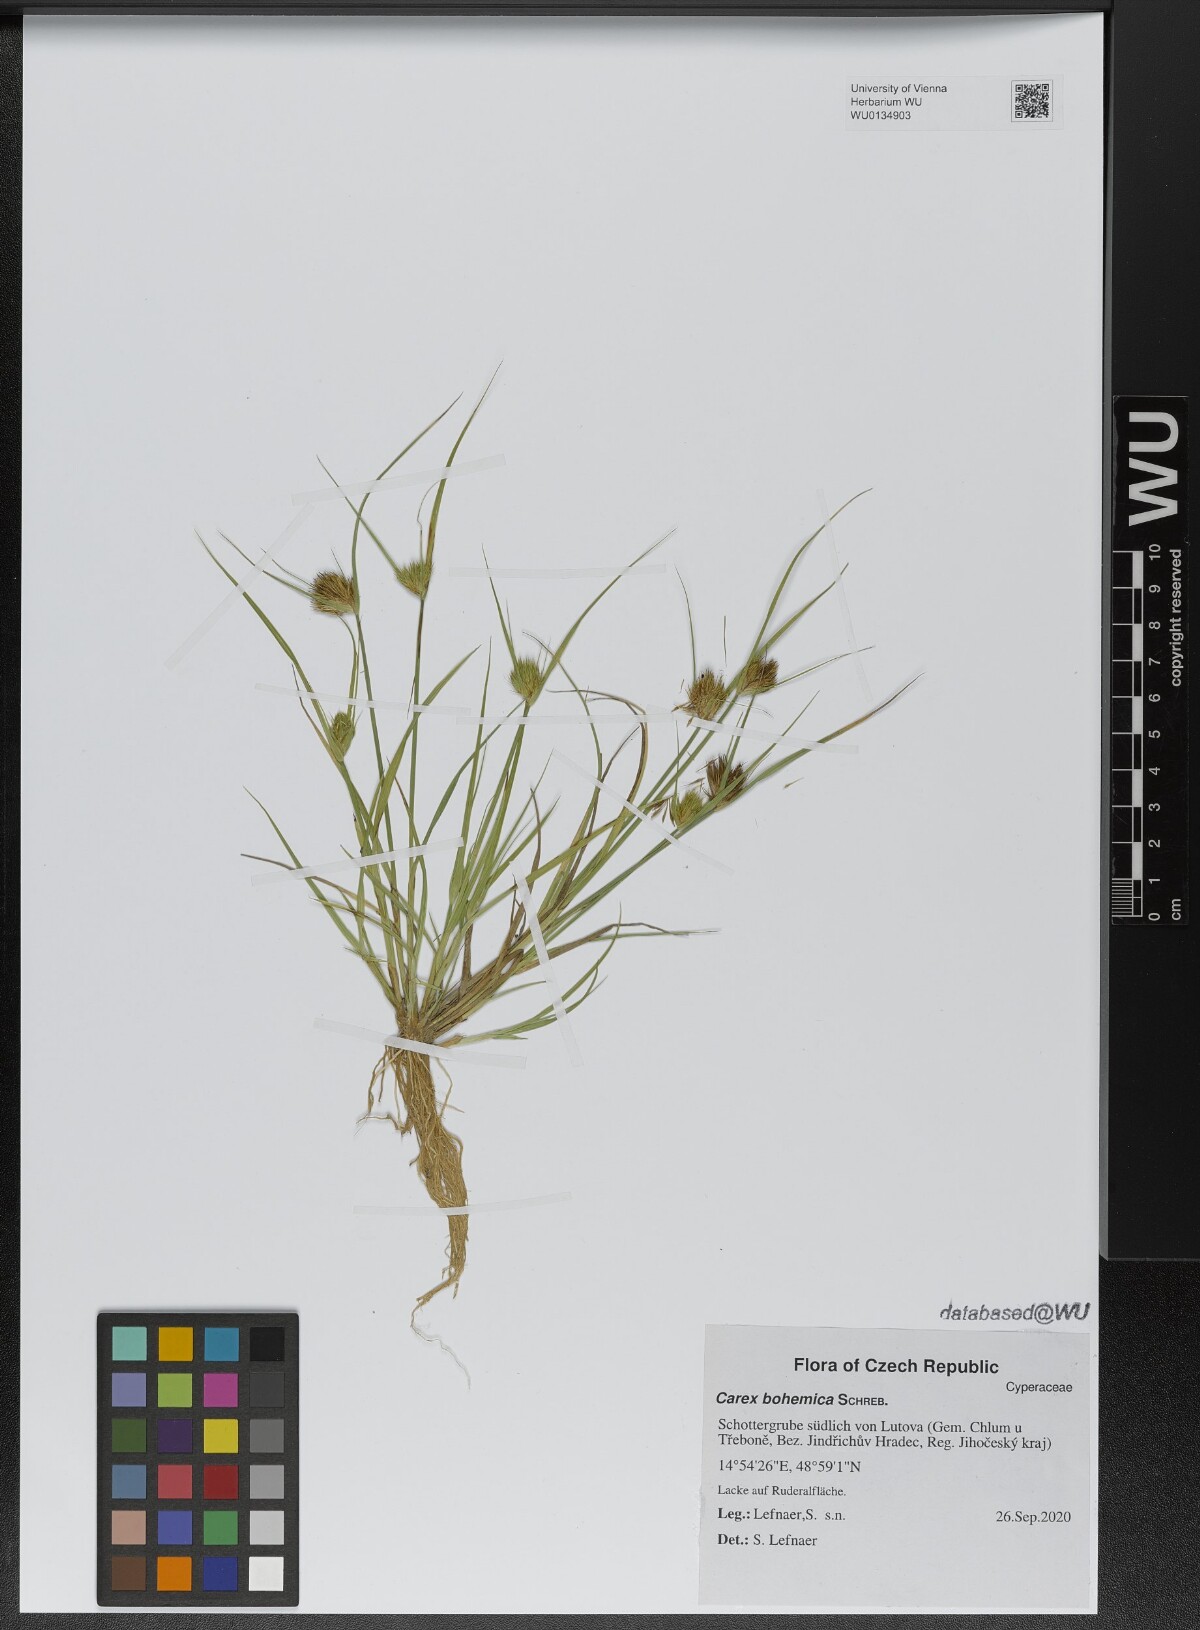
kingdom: Plantae
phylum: Tracheophyta
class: Liliopsida
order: Poales
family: Cyperaceae
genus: Carex
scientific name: Carex bohemica
